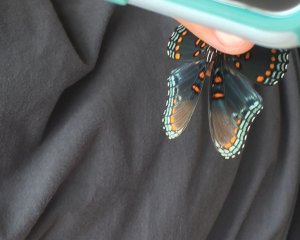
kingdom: Animalia
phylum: Arthropoda
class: Insecta
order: Lepidoptera
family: Nymphalidae
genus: Limenitis
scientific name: Limenitis astyanax
